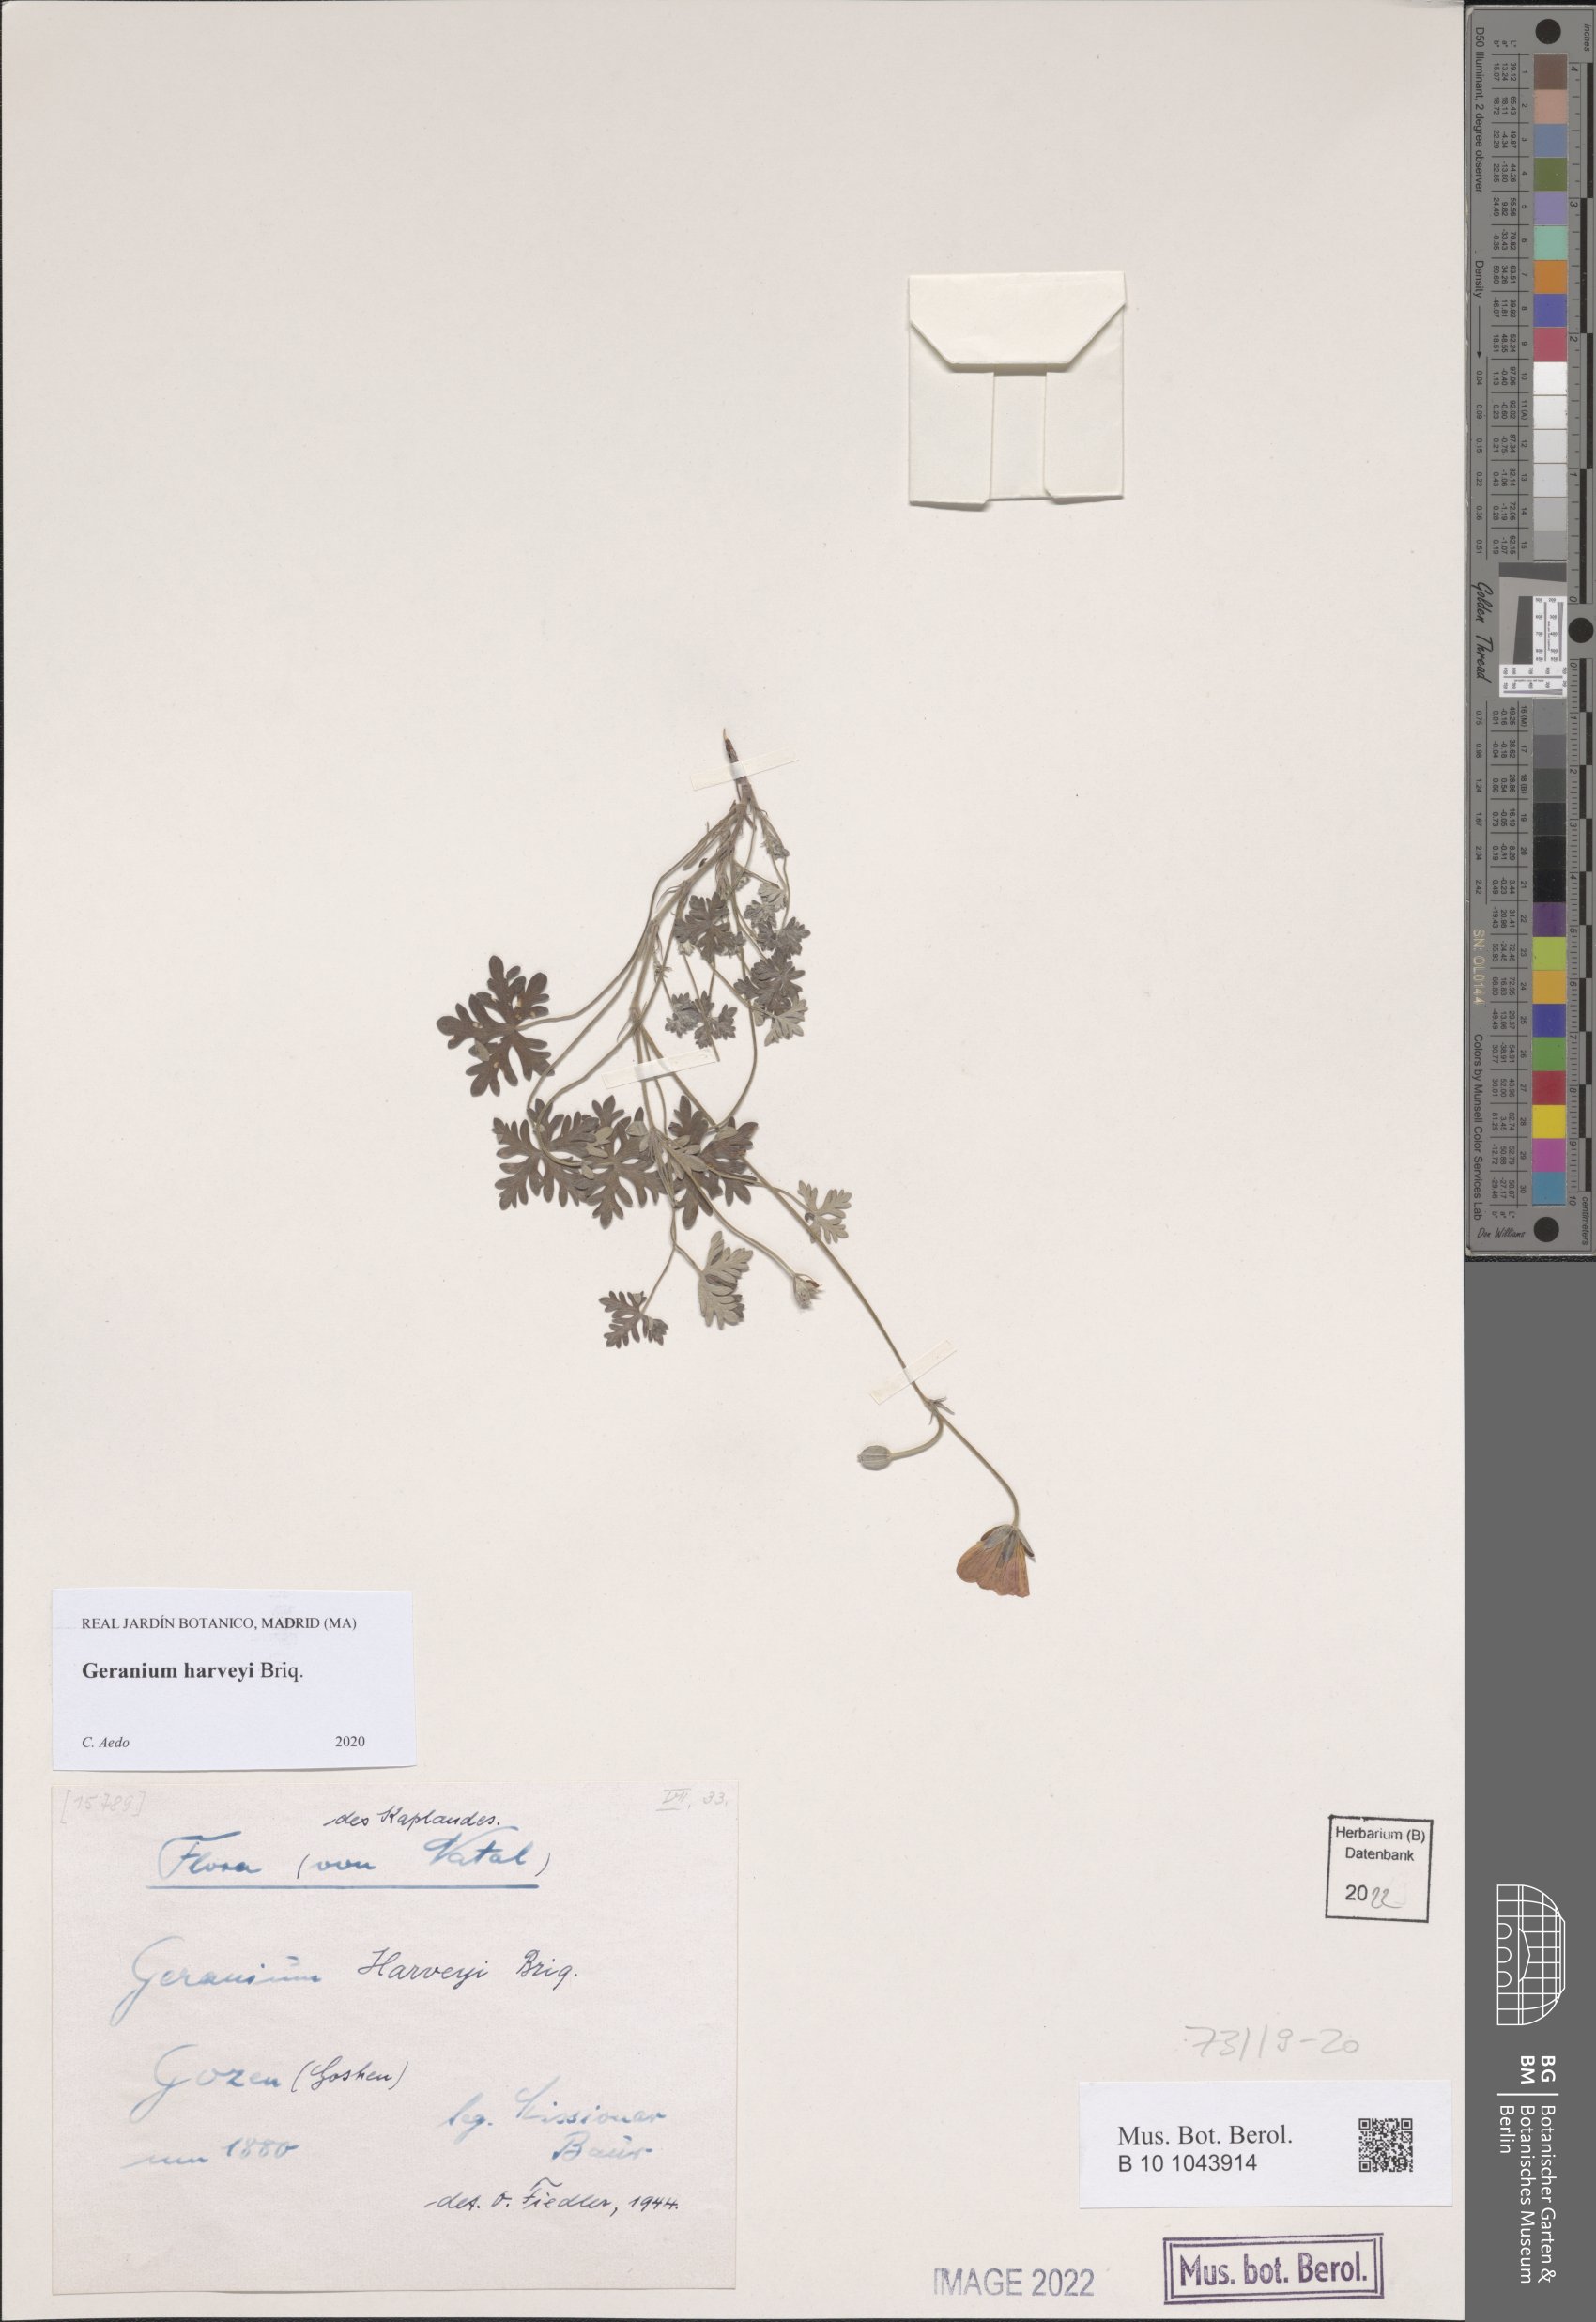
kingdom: Plantae
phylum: Tracheophyta
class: Magnoliopsida
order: Geraniales
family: Geraniaceae
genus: Geranium
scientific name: Geranium harveyi
